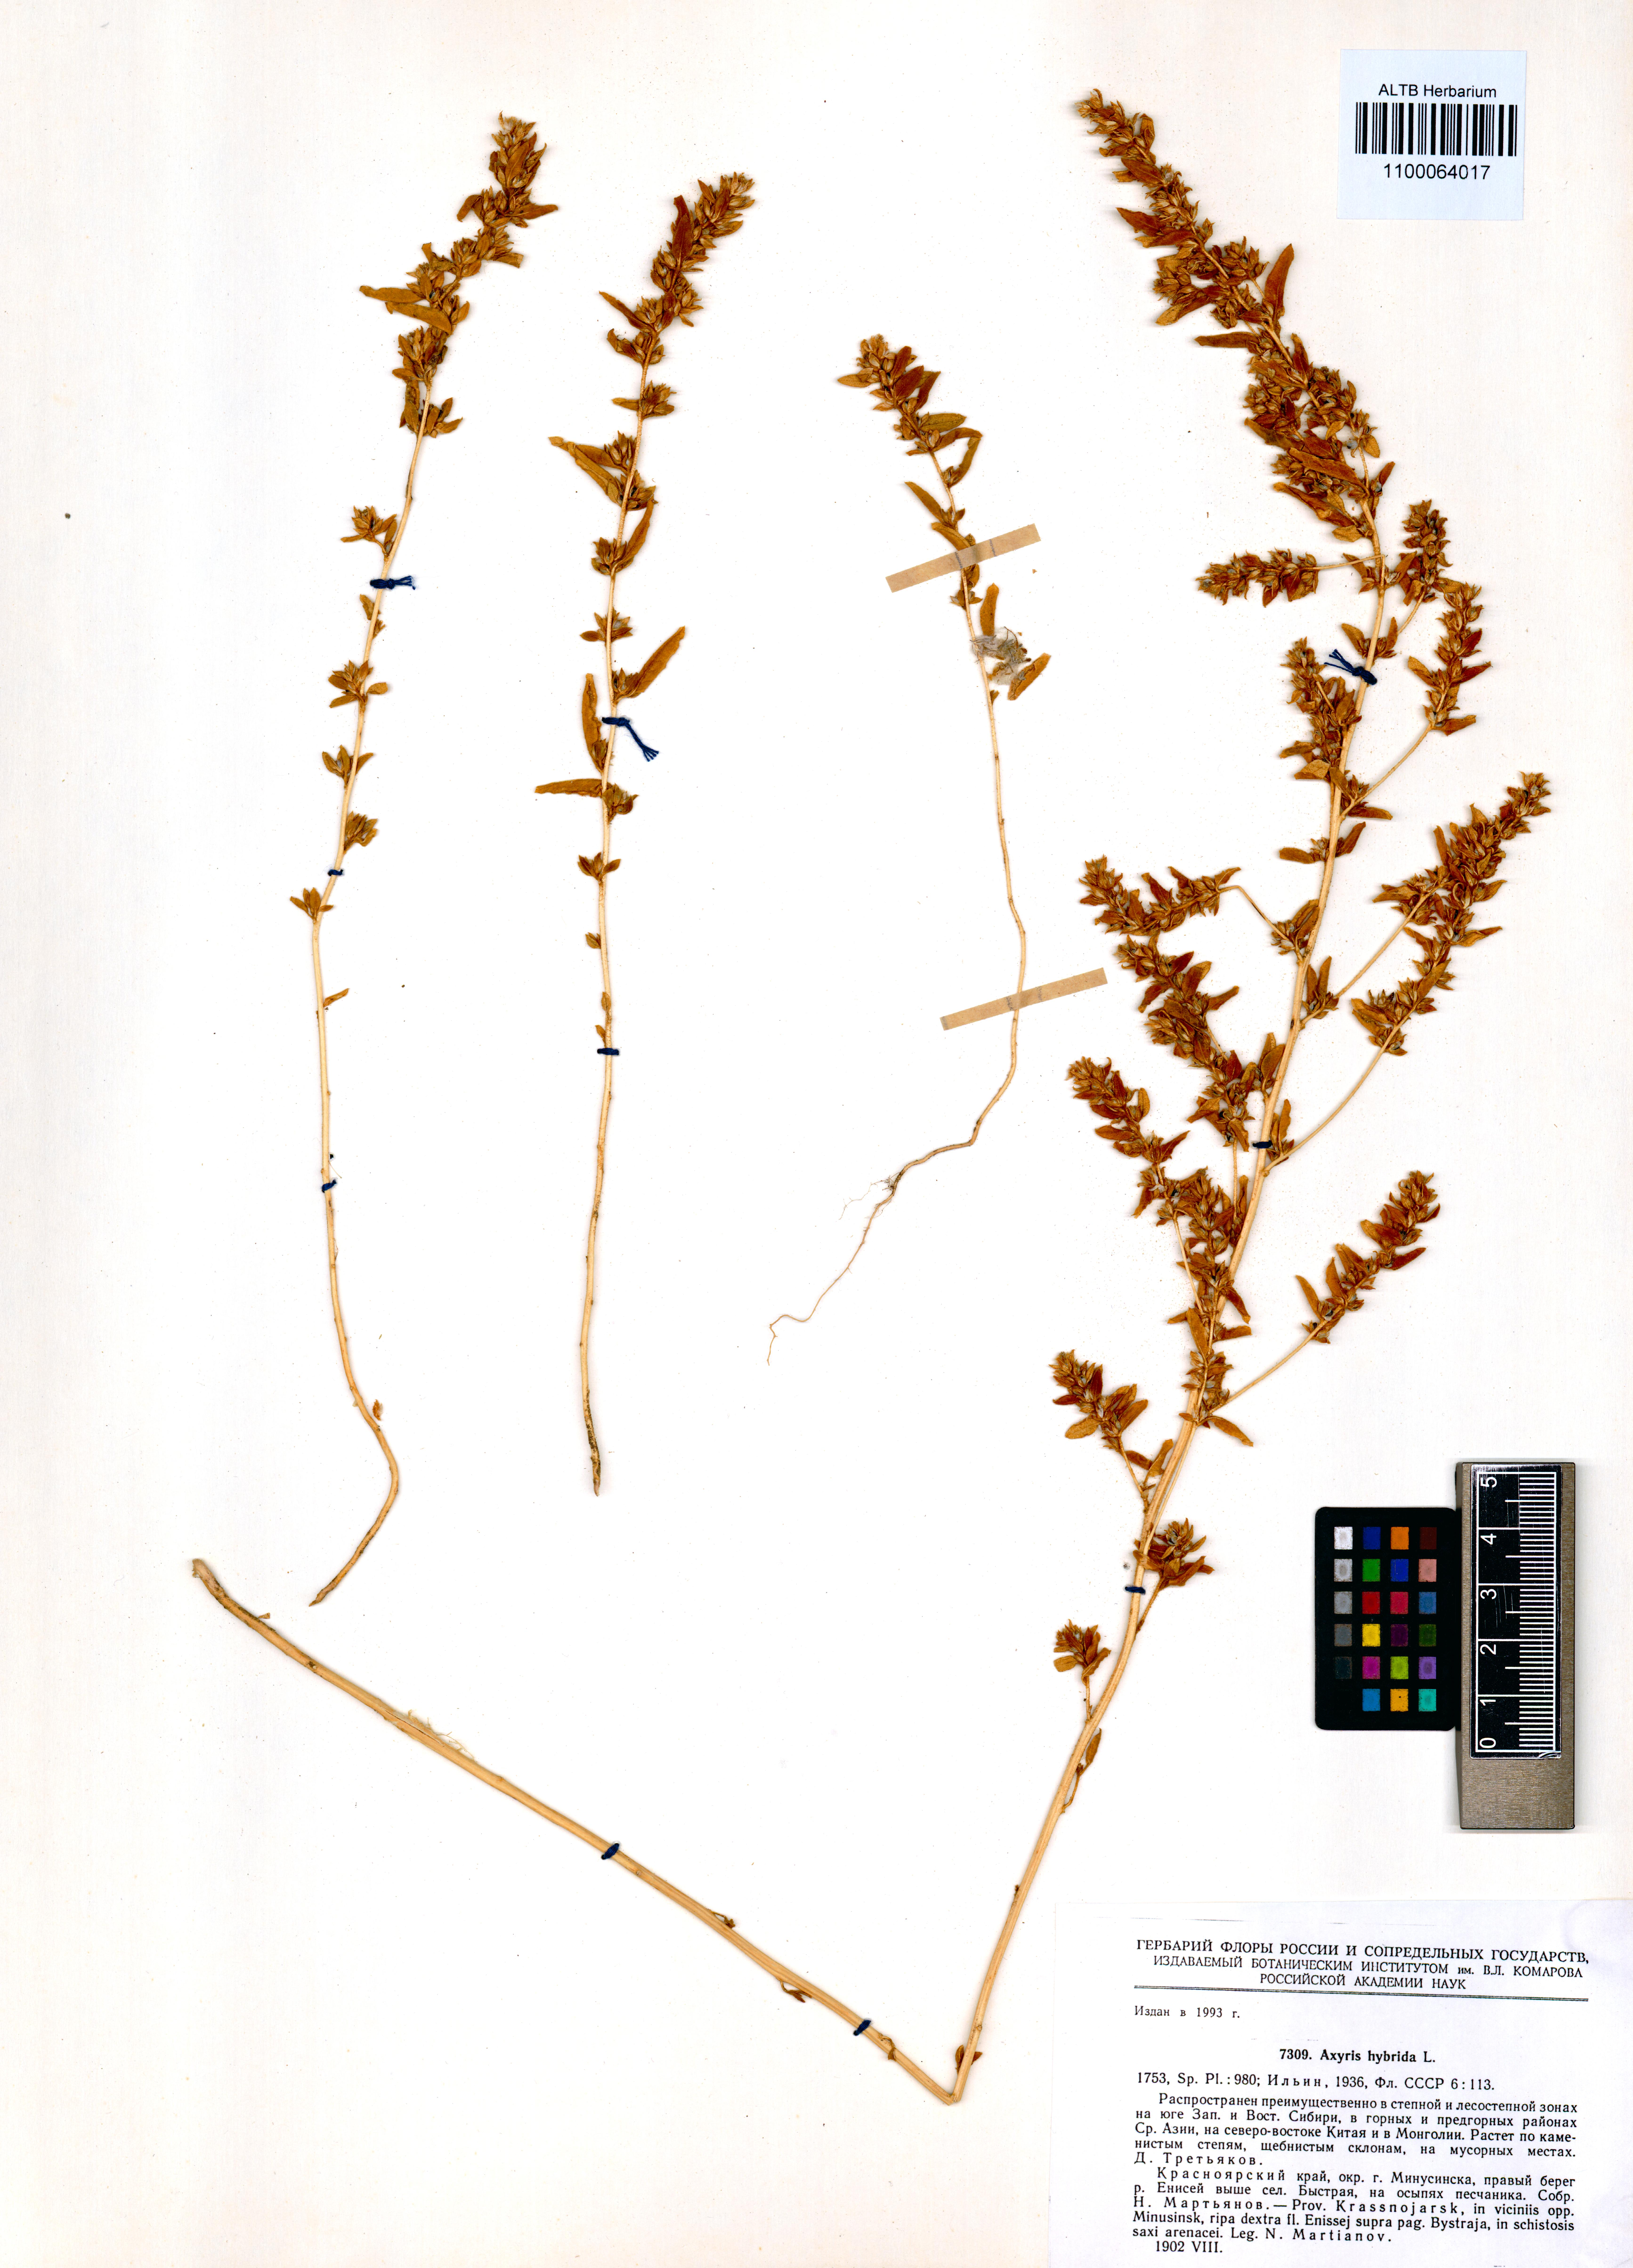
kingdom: Plantae
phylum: Tracheophyta
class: Magnoliopsida
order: Caryophyllales
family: Amaranthaceae
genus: Axyris
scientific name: Axyris hybrida
